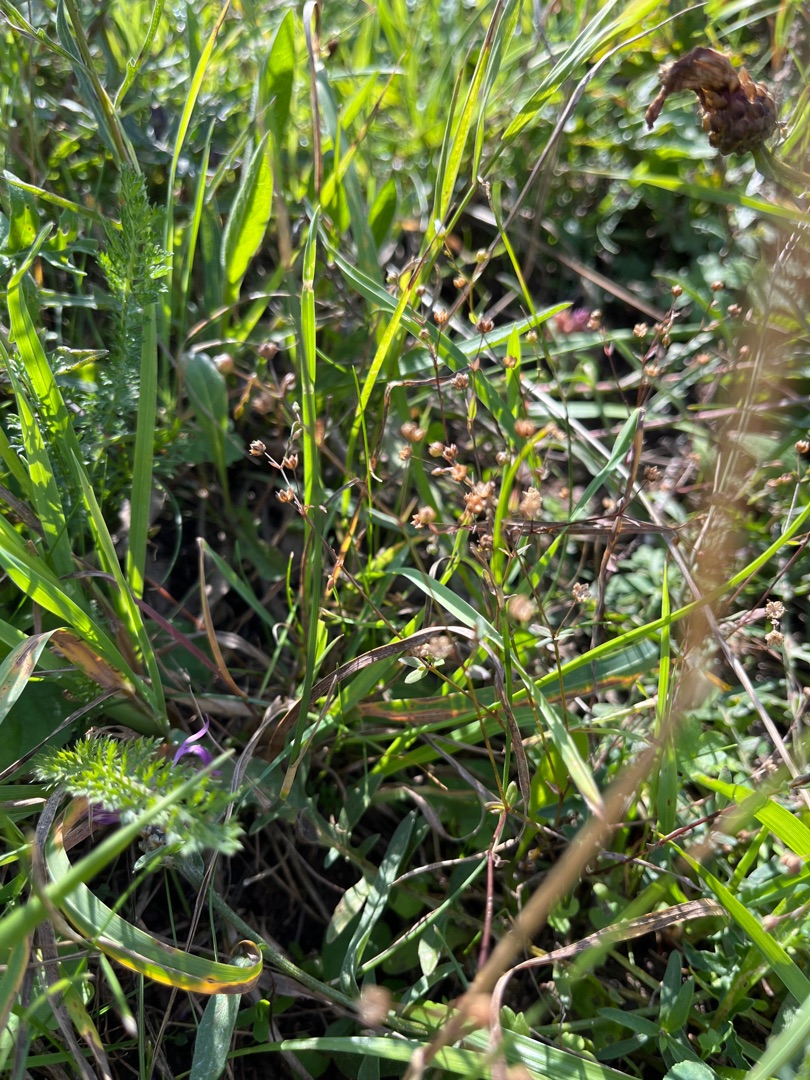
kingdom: Plantae
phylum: Tracheophyta
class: Magnoliopsida
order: Malpighiales
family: Linaceae
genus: Linum
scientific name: Linum catharticum
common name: Vild hør
